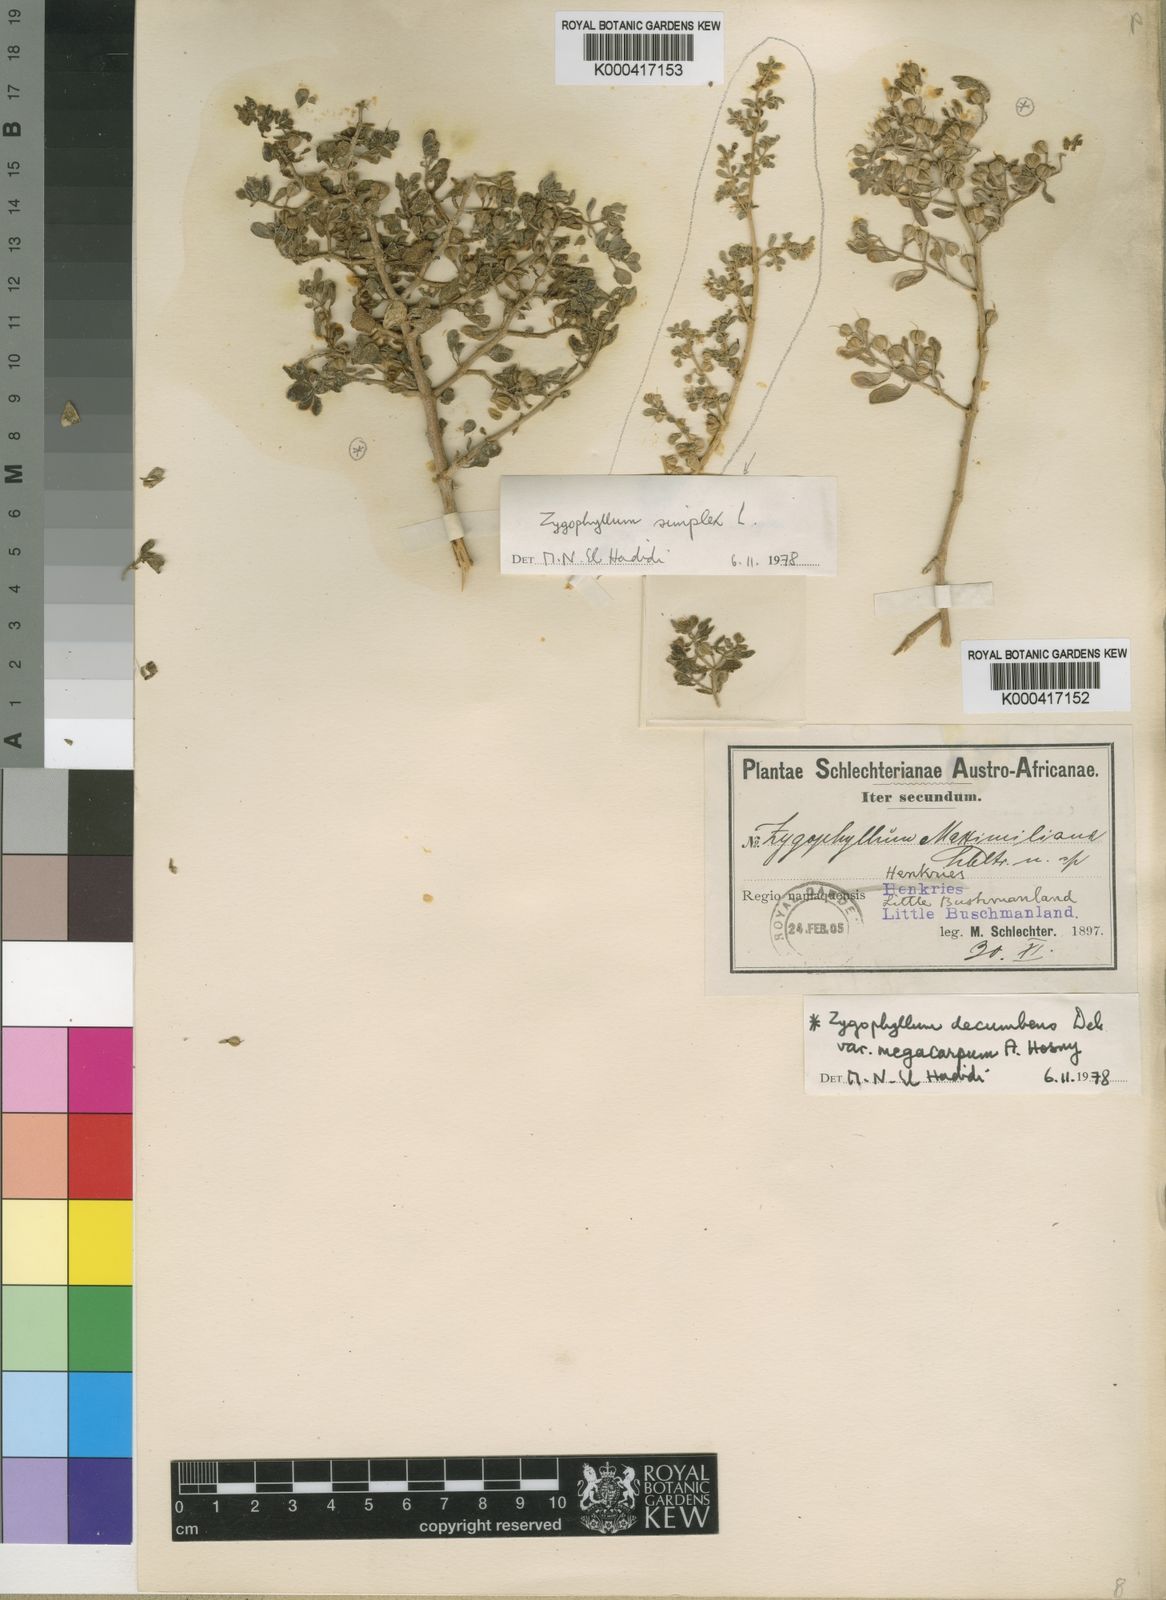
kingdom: Plantae
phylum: Tracheophyta
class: Magnoliopsida
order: Zygophyllales
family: Zygophyllaceae
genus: Zygophyllum
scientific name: Zygophyllum
